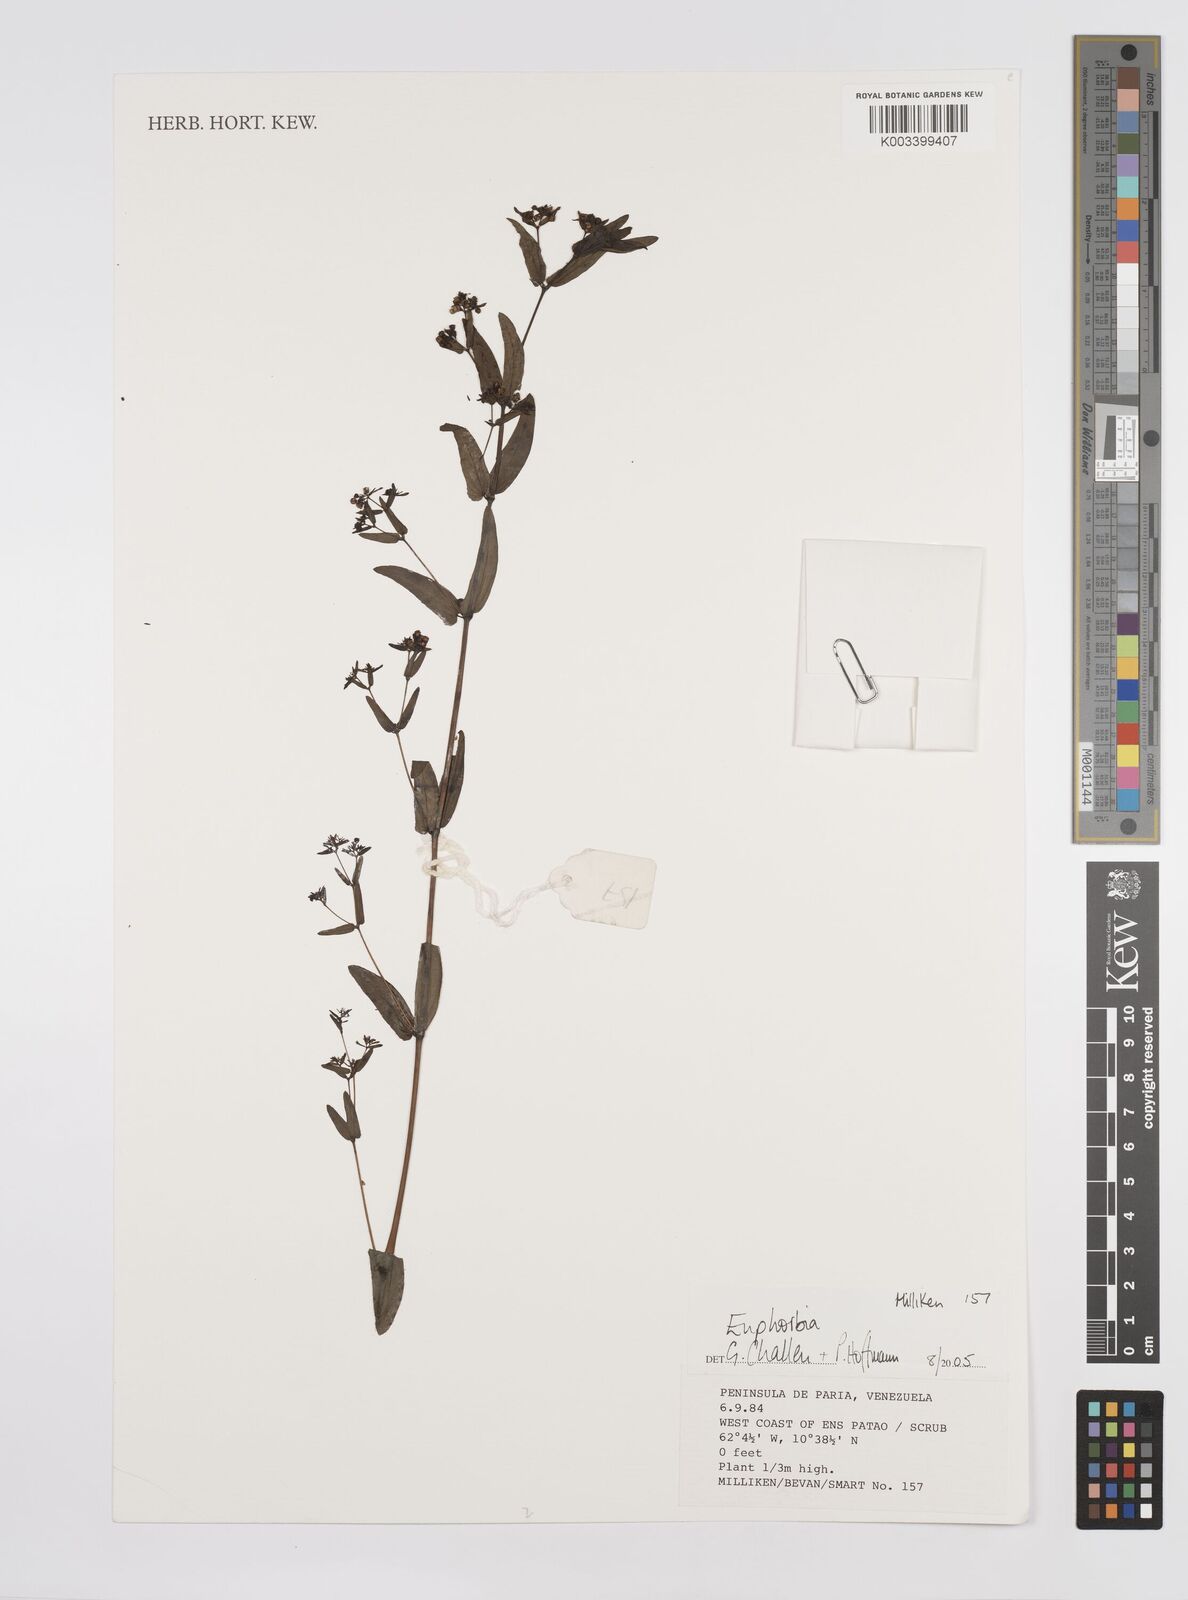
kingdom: Plantae
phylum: Tracheophyta
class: Magnoliopsida
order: Malpighiales
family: Euphorbiaceae
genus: Euphorbia
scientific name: Euphorbia
